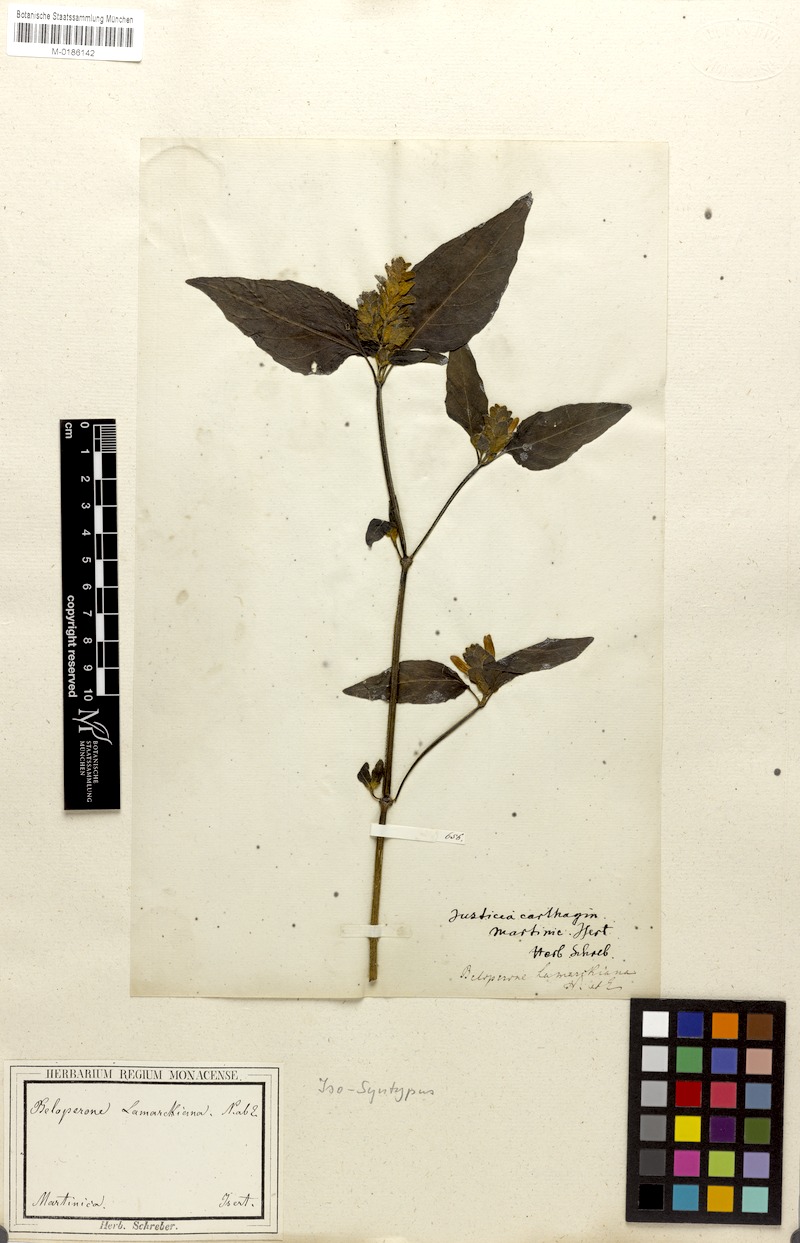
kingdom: Plantae
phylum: Tracheophyta
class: Magnoliopsida
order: Lamiales
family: Acanthaceae
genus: Justicia
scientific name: Justicia mirabiloides
